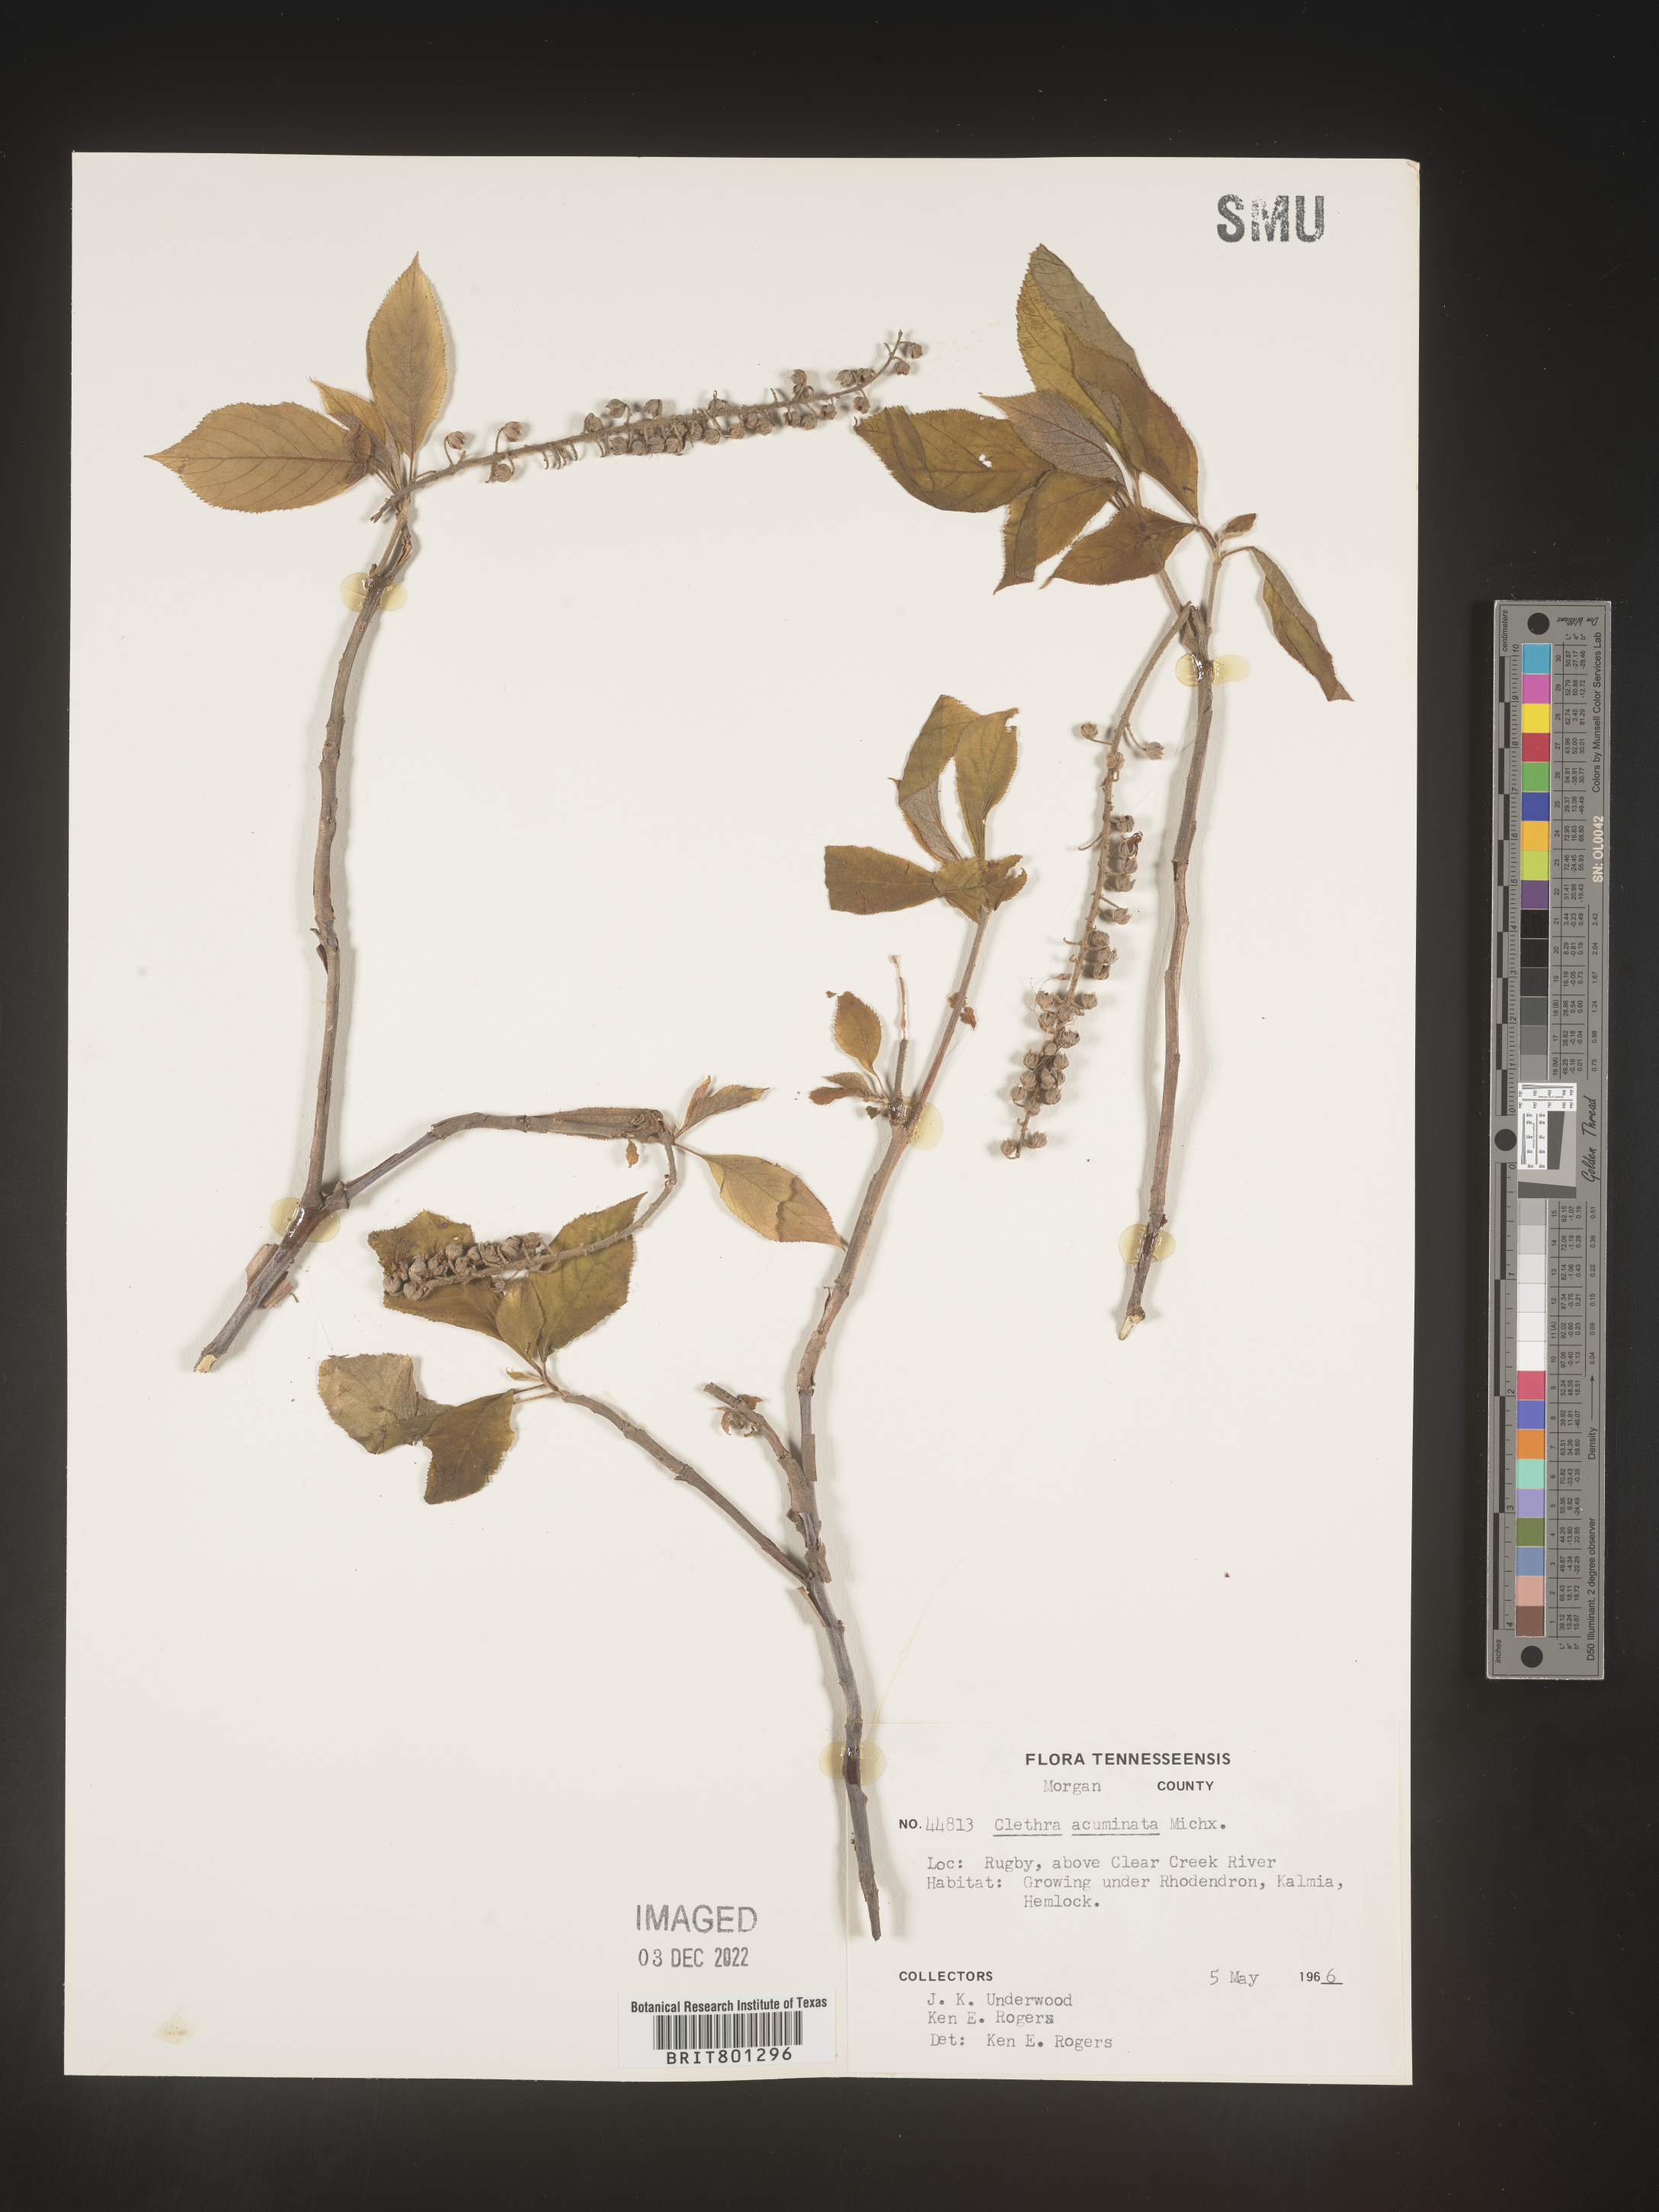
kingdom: Plantae
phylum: Tracheophyta
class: Magnoliopsida
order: Ericales
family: Clethraceae
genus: Clethra
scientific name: Clethra acuminata
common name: Mountain sweet pepperbush
